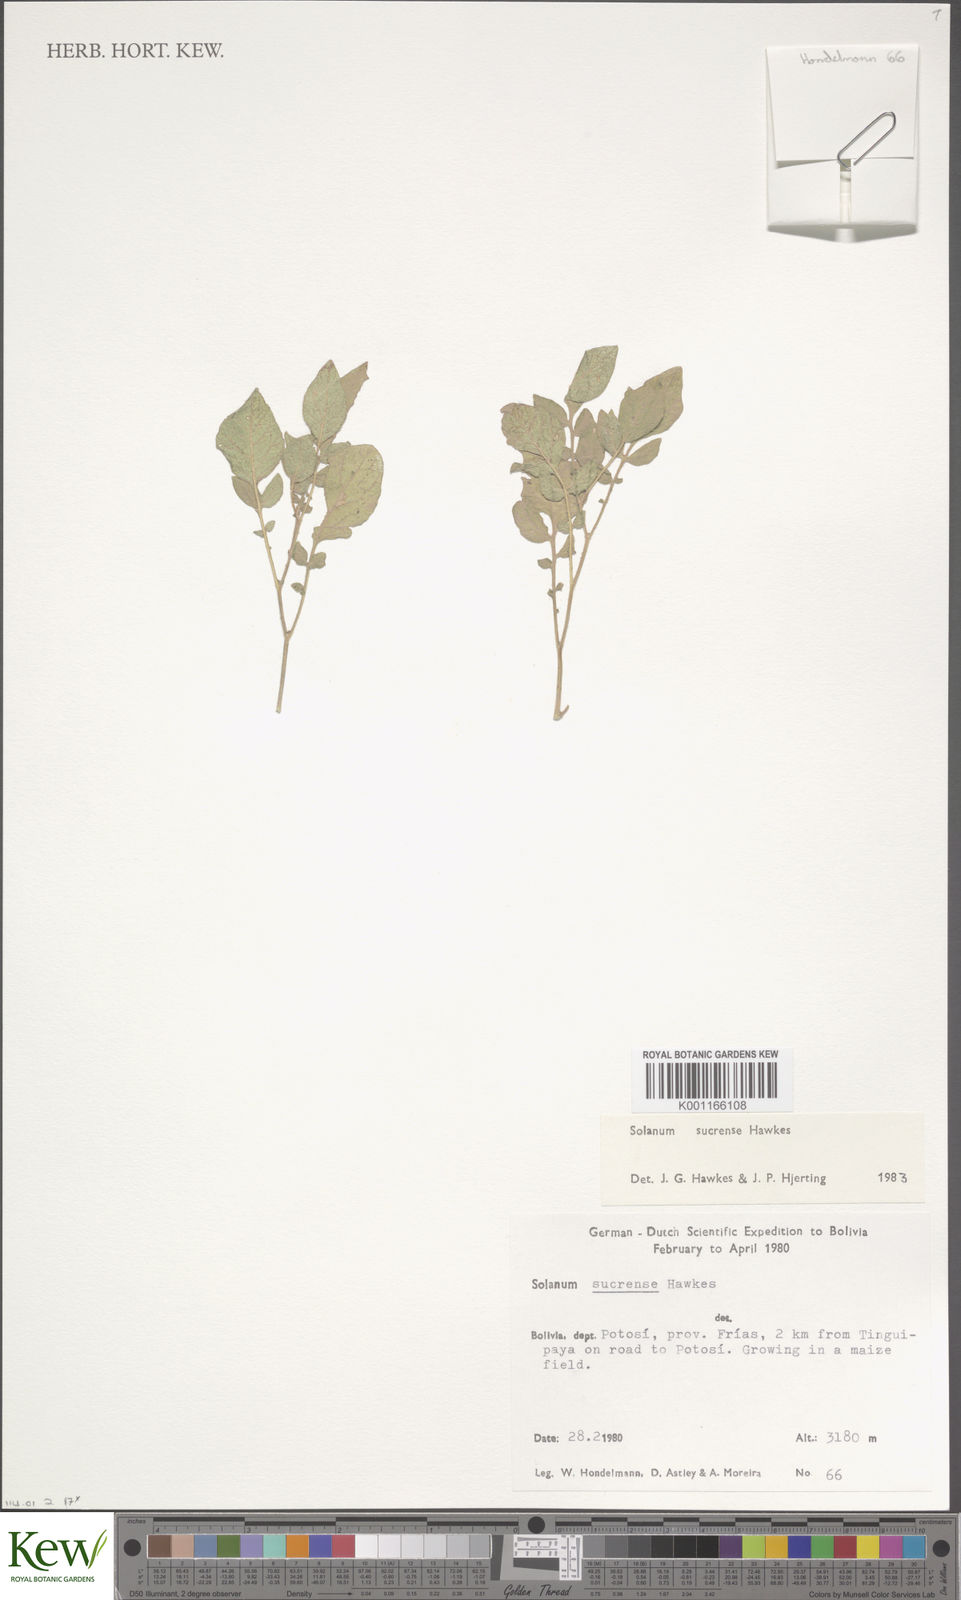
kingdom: Plantae
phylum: Tracheophyta
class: Magnoliopsida
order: Solanales
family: Solanaceae
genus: Solanum
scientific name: Solanum brevicaule
